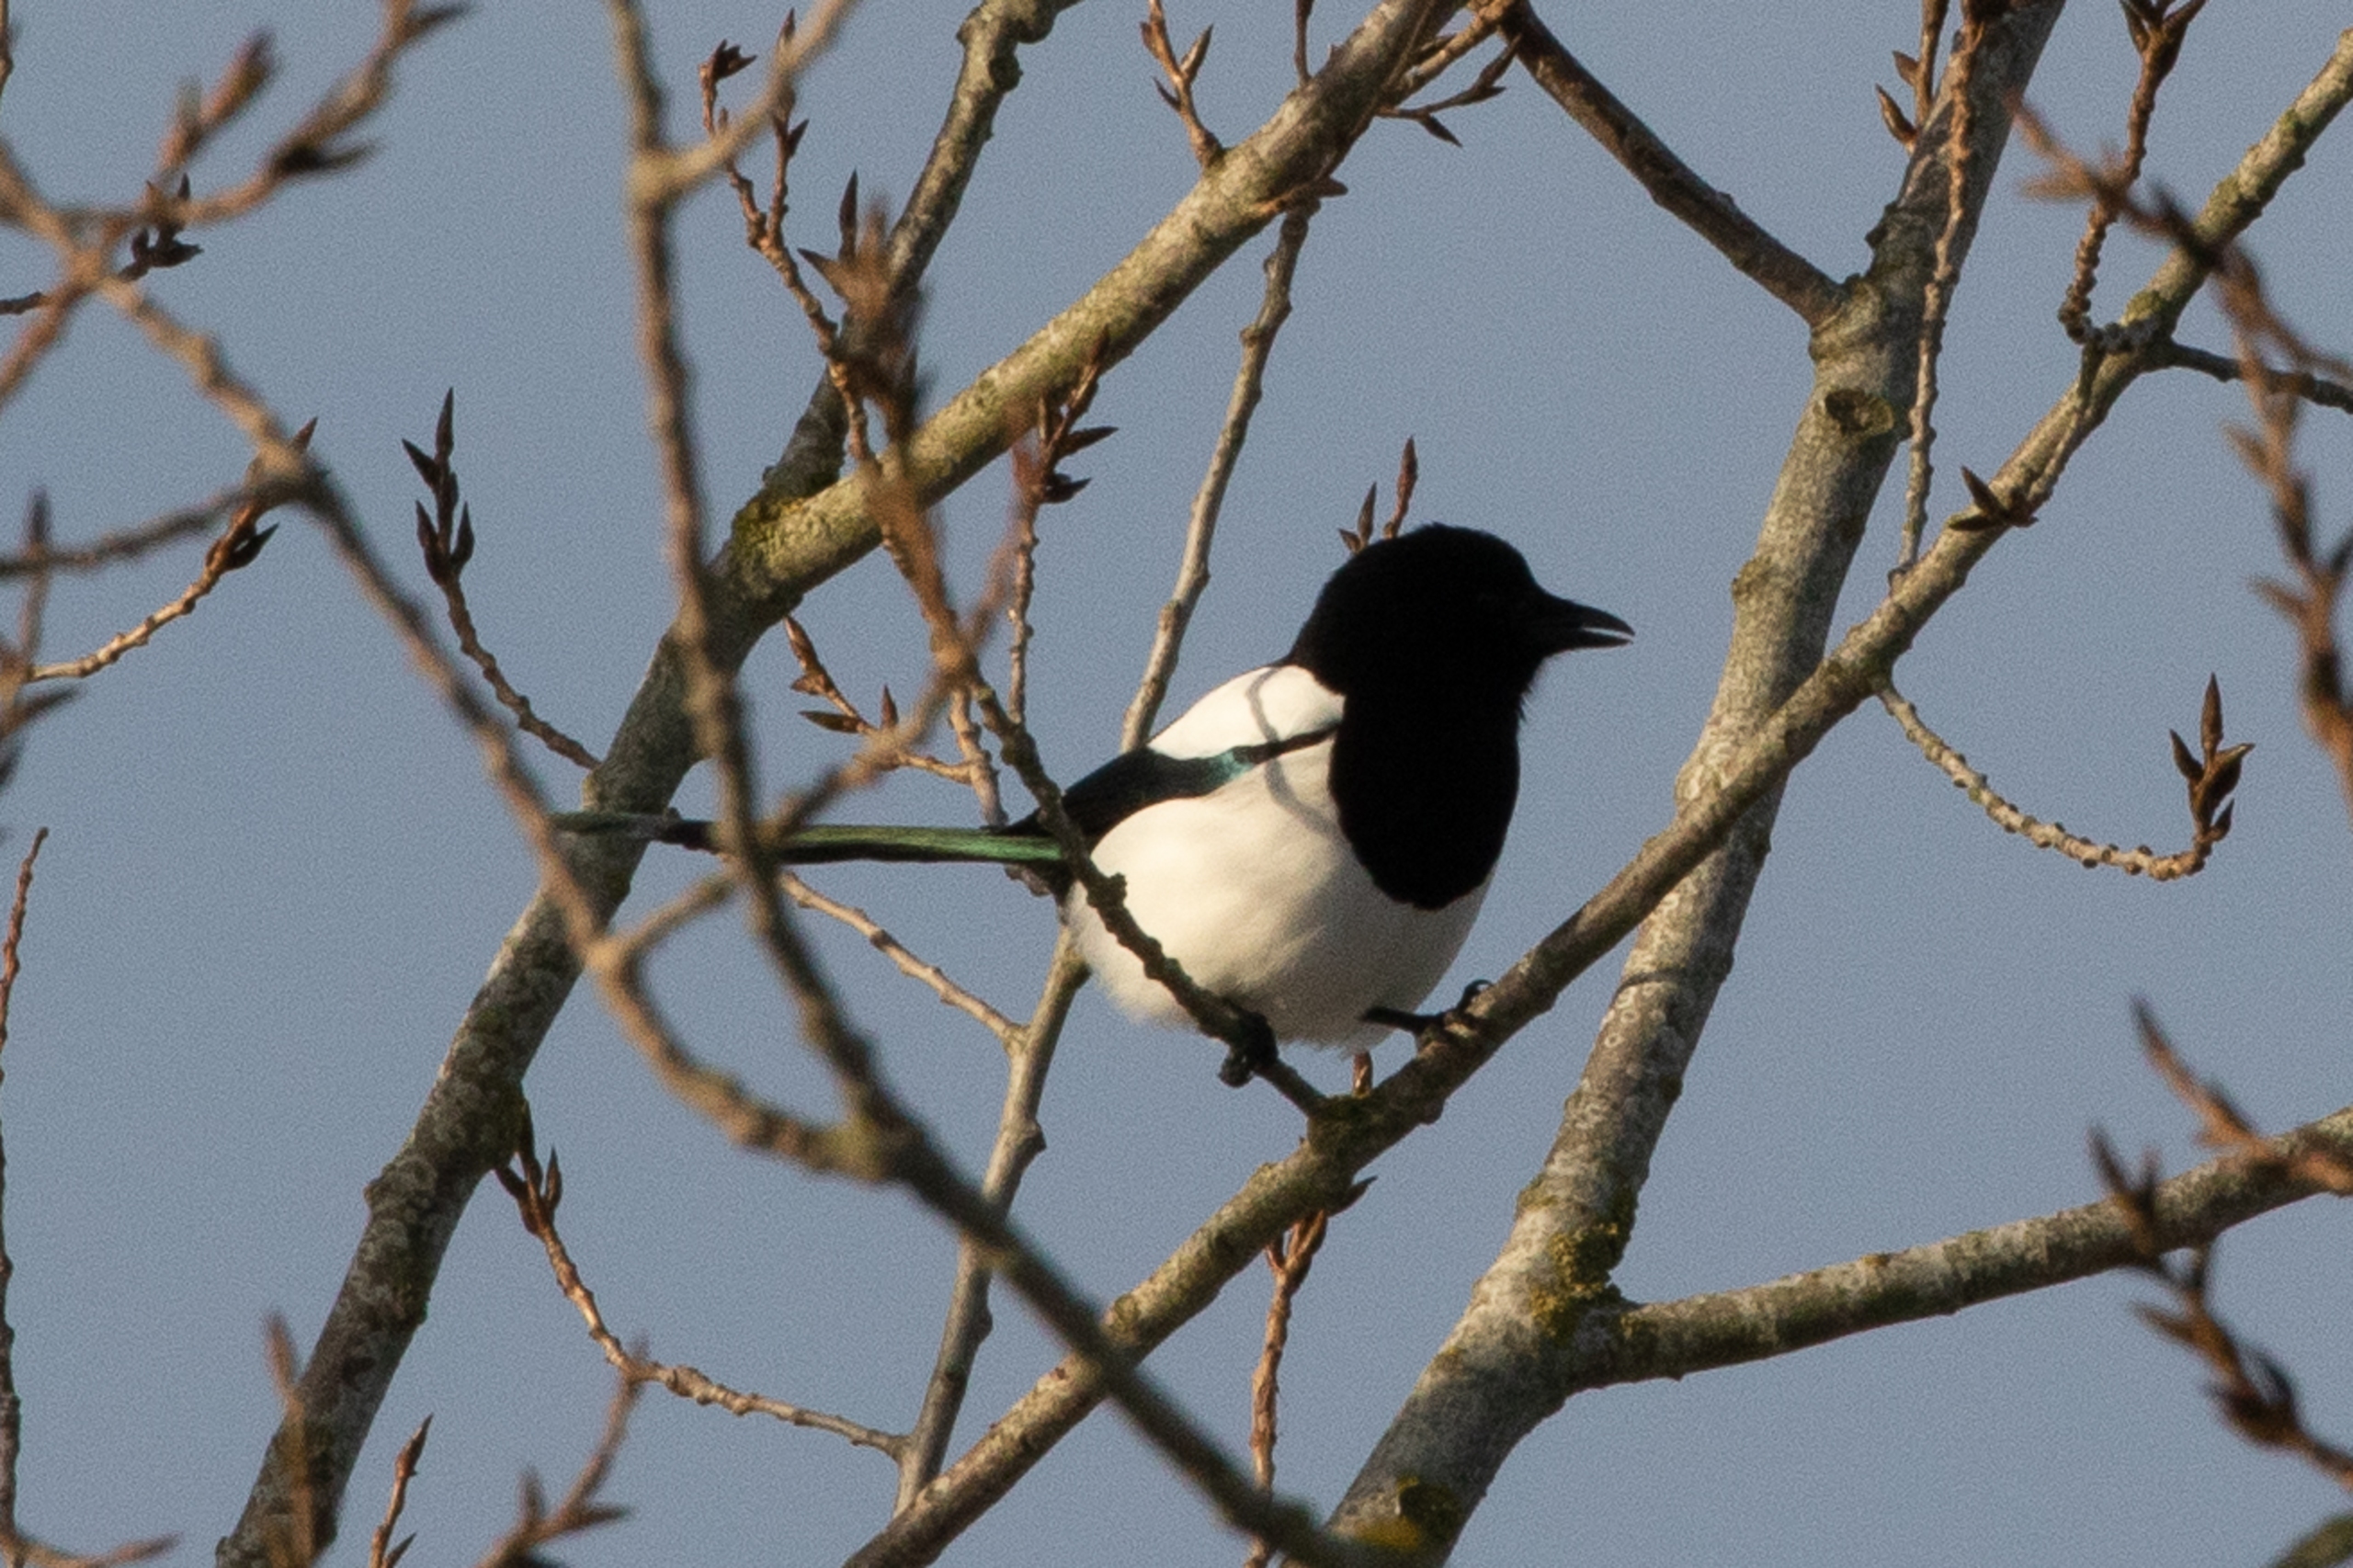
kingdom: Animalia
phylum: Chordata
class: Aves
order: Passeriformes
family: Corvidae
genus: Pica
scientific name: Pica pica
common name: Husskade
